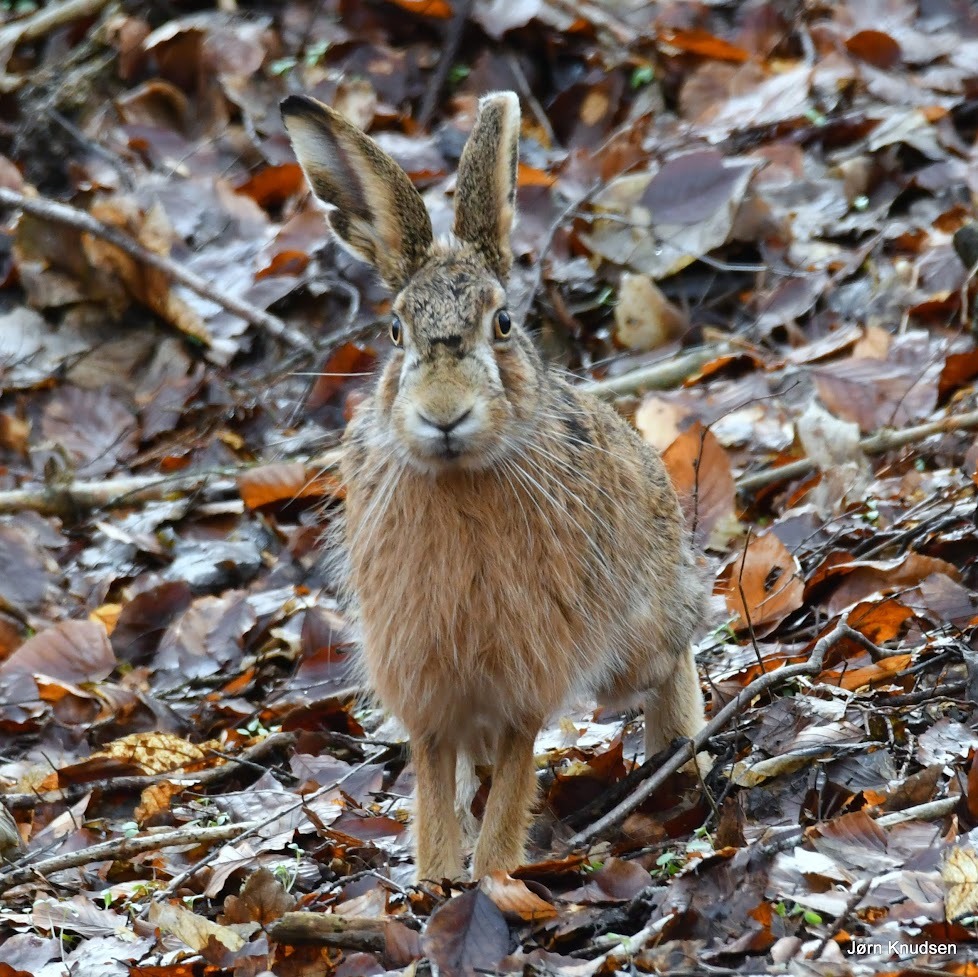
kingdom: Animalia
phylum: Chordata
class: Mammalia
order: Lagomorpha
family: Leporidae
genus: Lepus
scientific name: Lepus europaeus
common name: Hare
